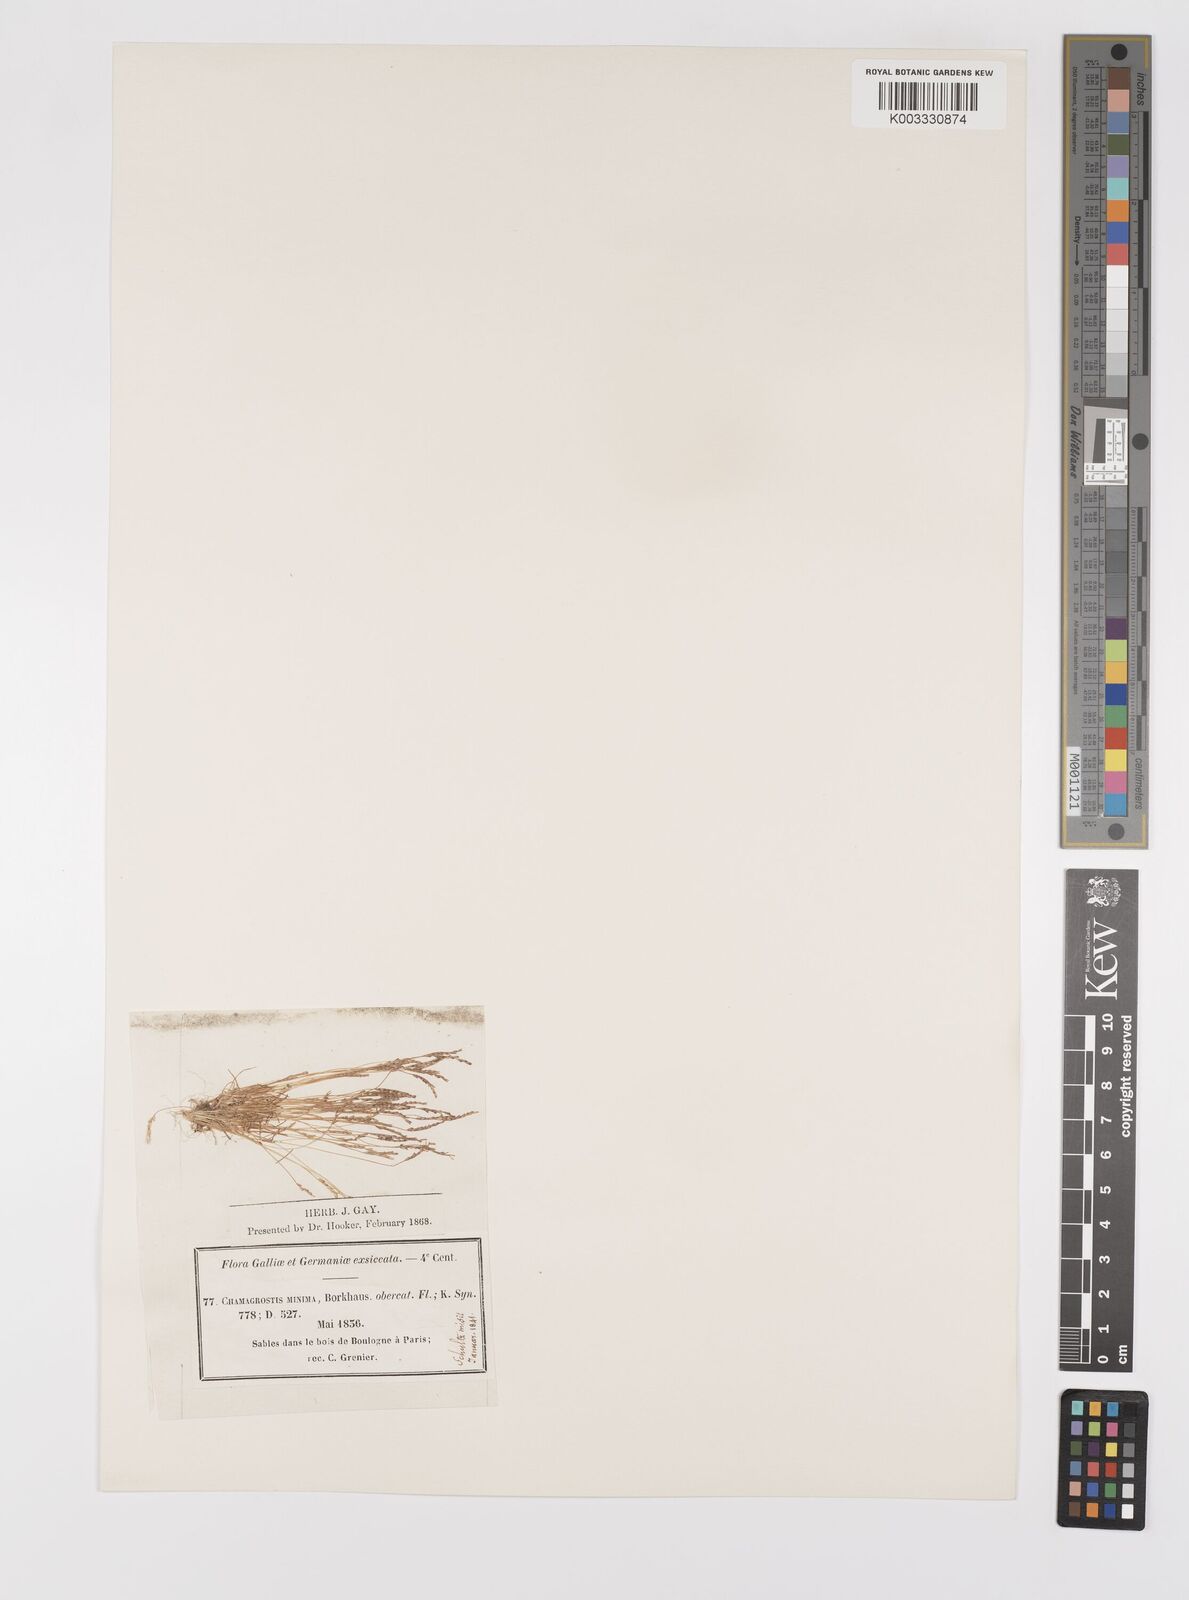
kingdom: Plantae
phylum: Tracheophyta
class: Liliopsida
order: Poales
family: Poaceae
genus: Mibora
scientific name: Mibora minima
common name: Early sand-grass
